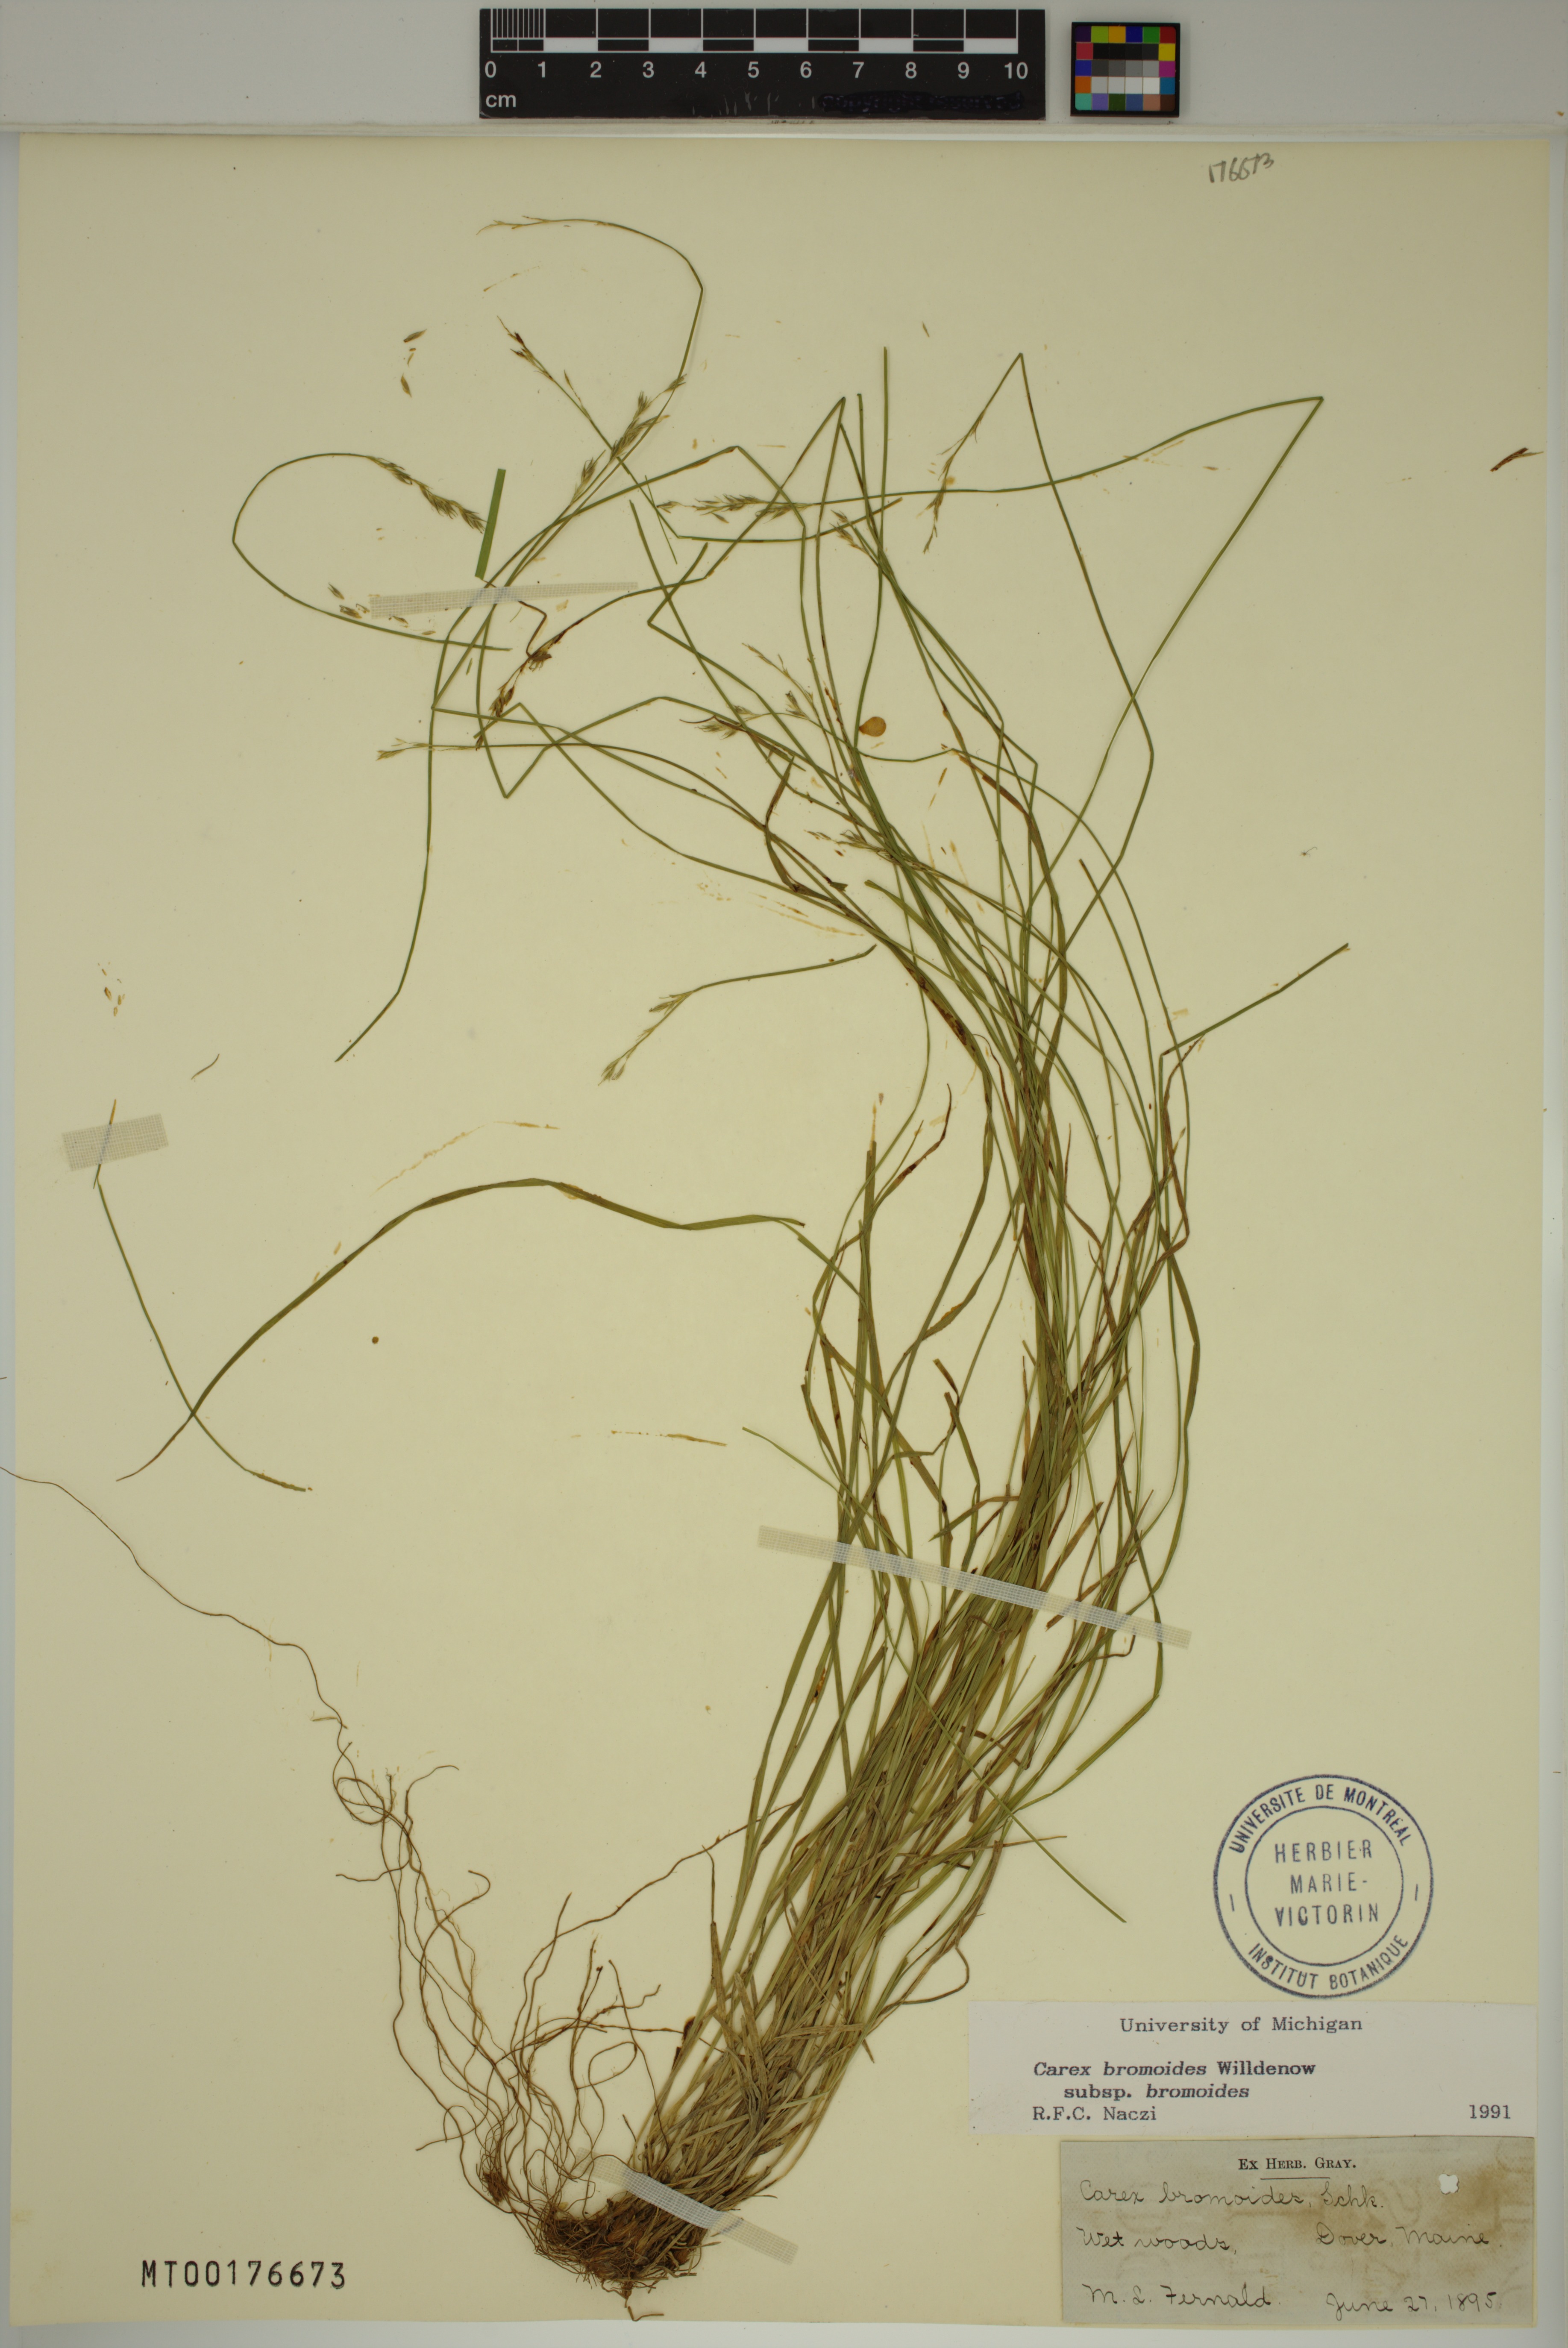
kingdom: Plantae
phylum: Tracheophyta
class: Liliopsida
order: Poales
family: Cyperaceae
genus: Carex
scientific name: Carex bromoides
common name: Brome hummock sedge
